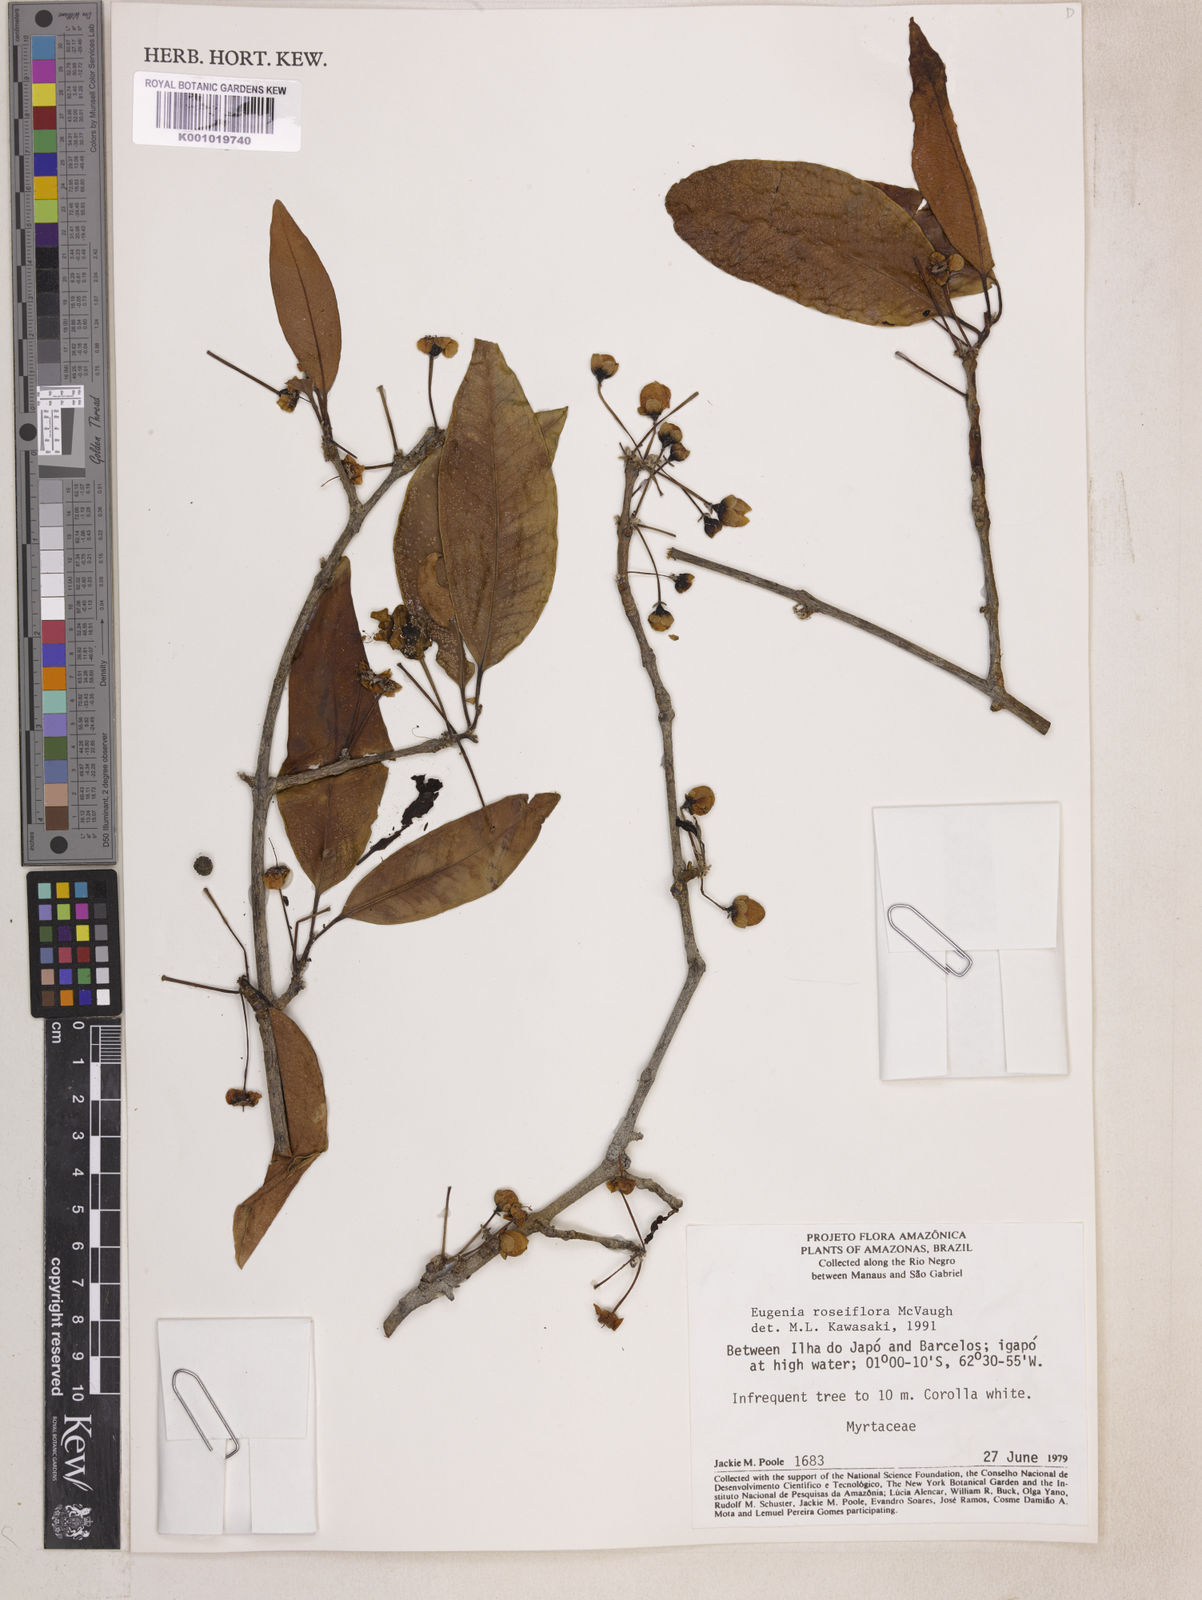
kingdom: Plantae
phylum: Tracheophyta
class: Magnoliopsida
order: Myrtales
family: Myrtaceae
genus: Eugenia
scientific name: Eugenia roseiflora
